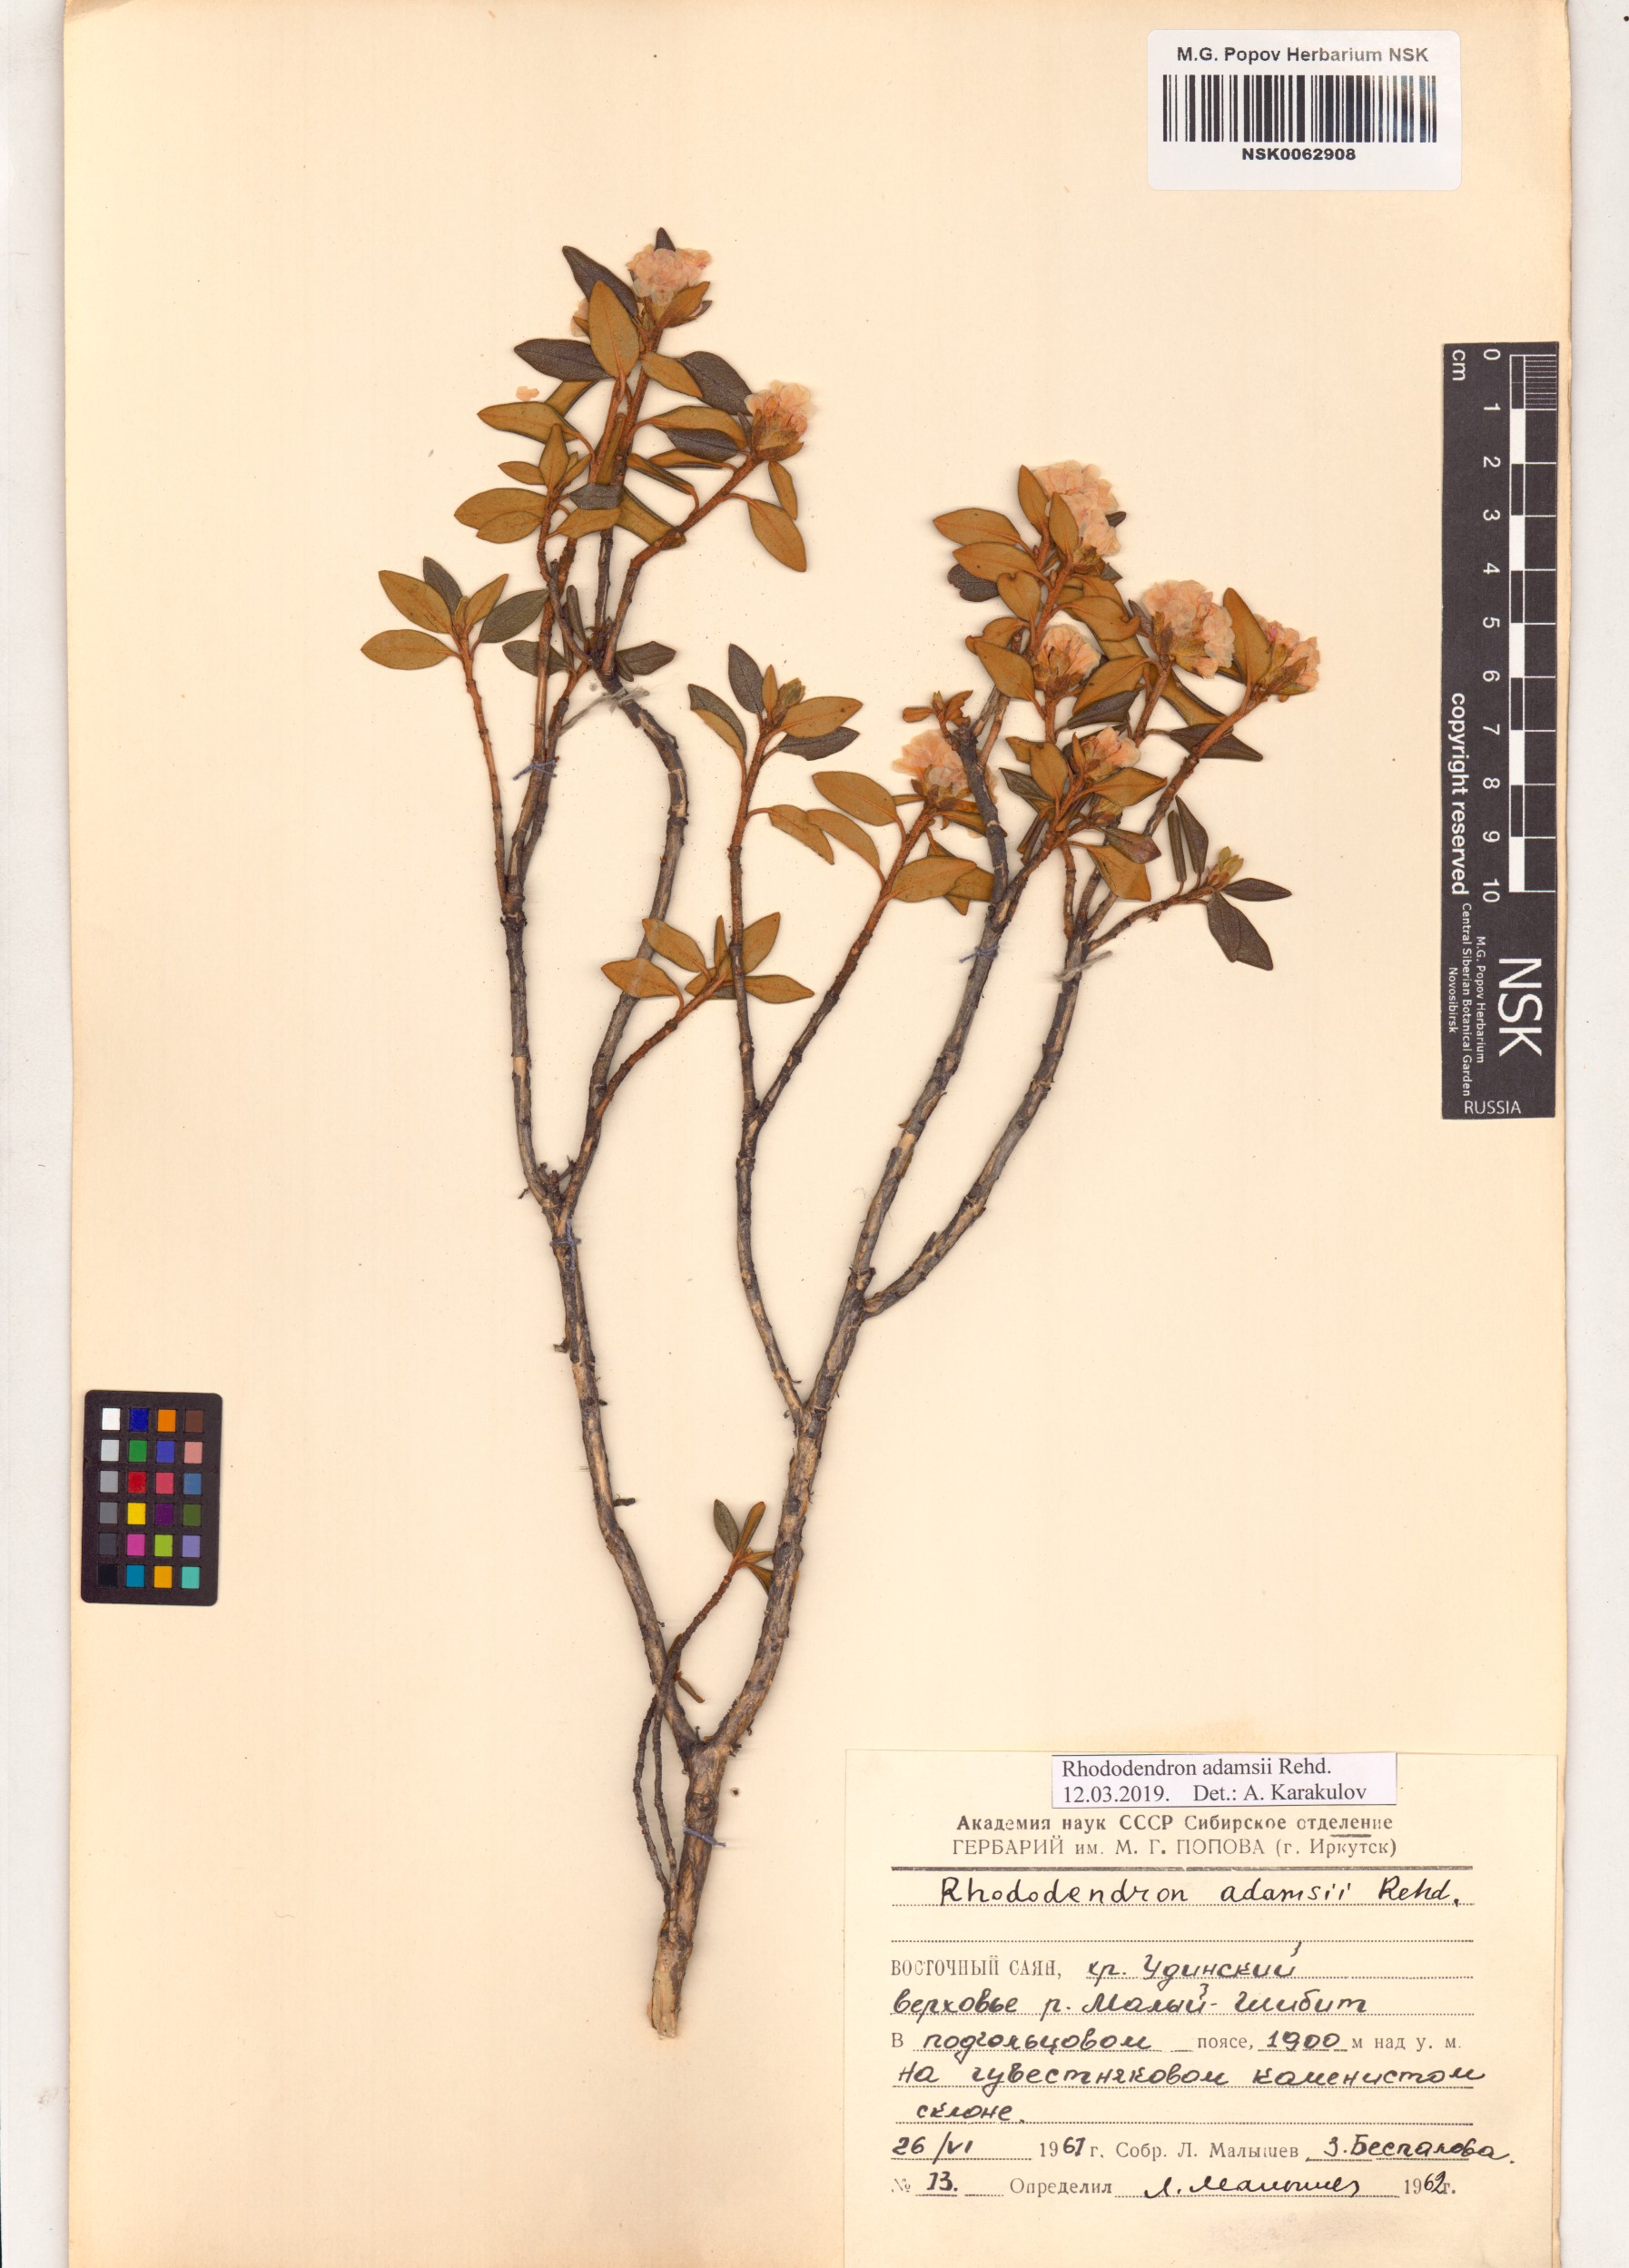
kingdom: Plantae
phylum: Tracheophyta
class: Magnoliopsida
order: Ericales
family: Ericaceae
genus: Rhododendron
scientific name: Rhododendron adamsii
